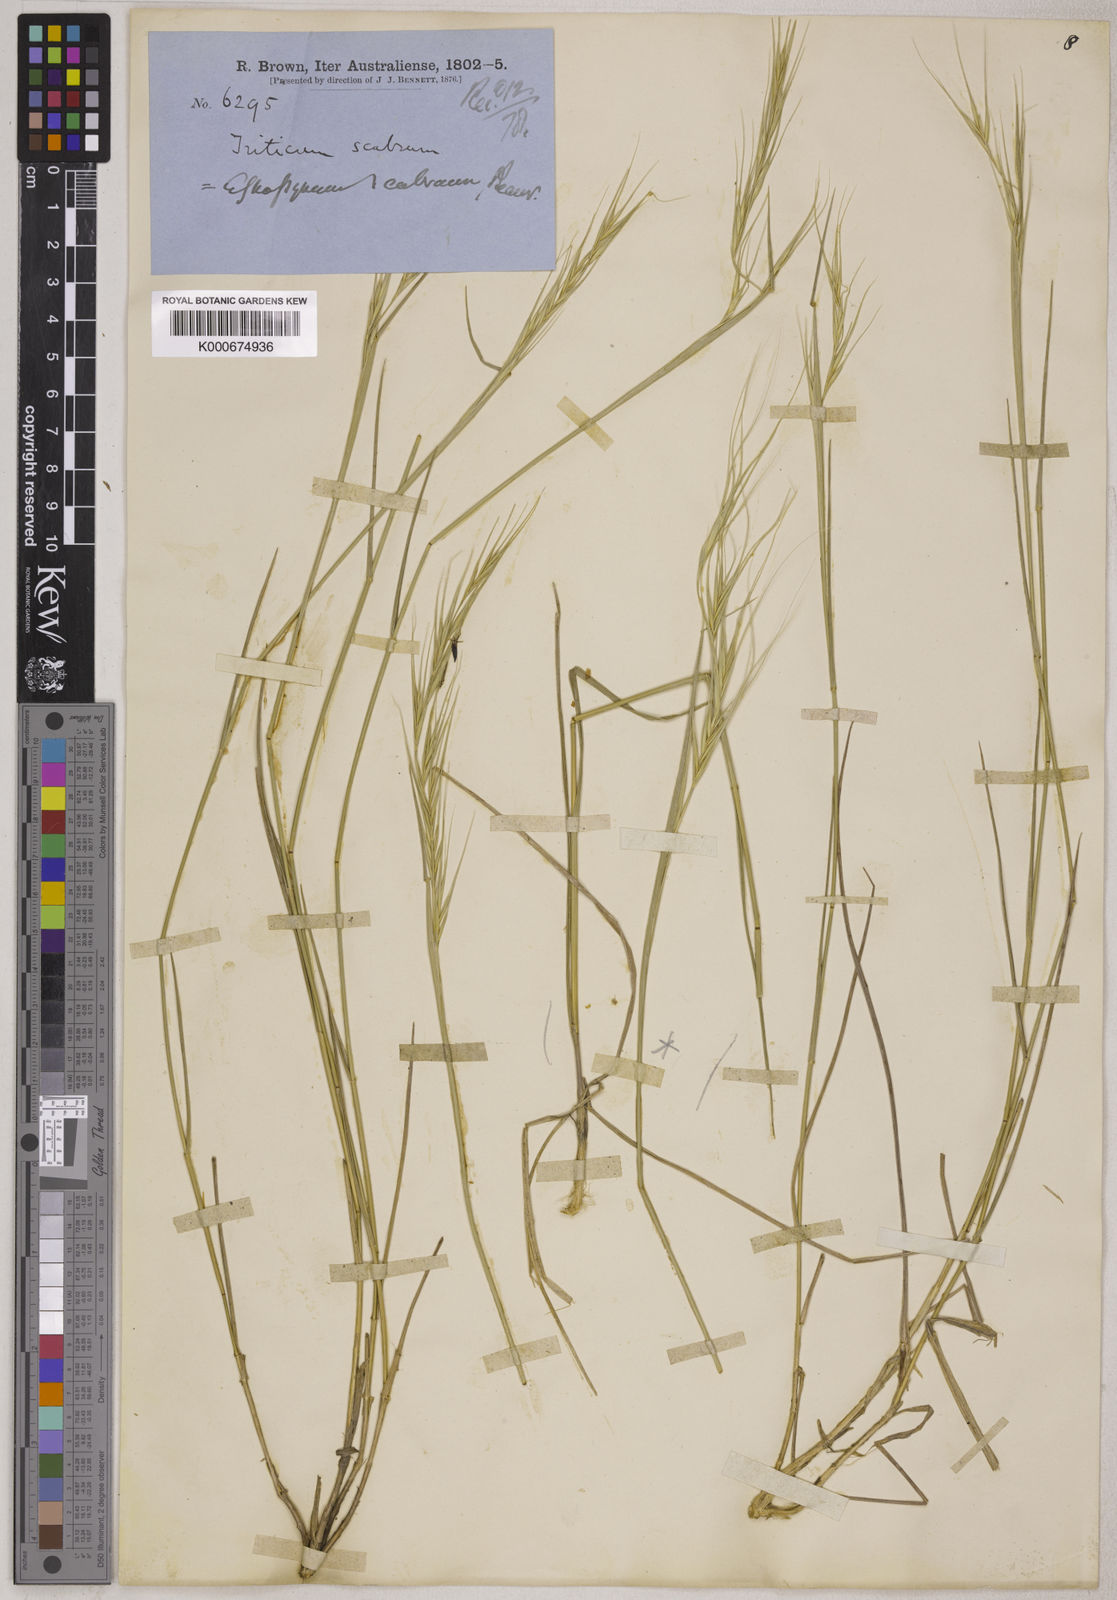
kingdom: Plantae
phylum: Tracheophyta
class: Liliopsida
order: Poales
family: Poaceae
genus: Elymus
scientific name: Elymus
